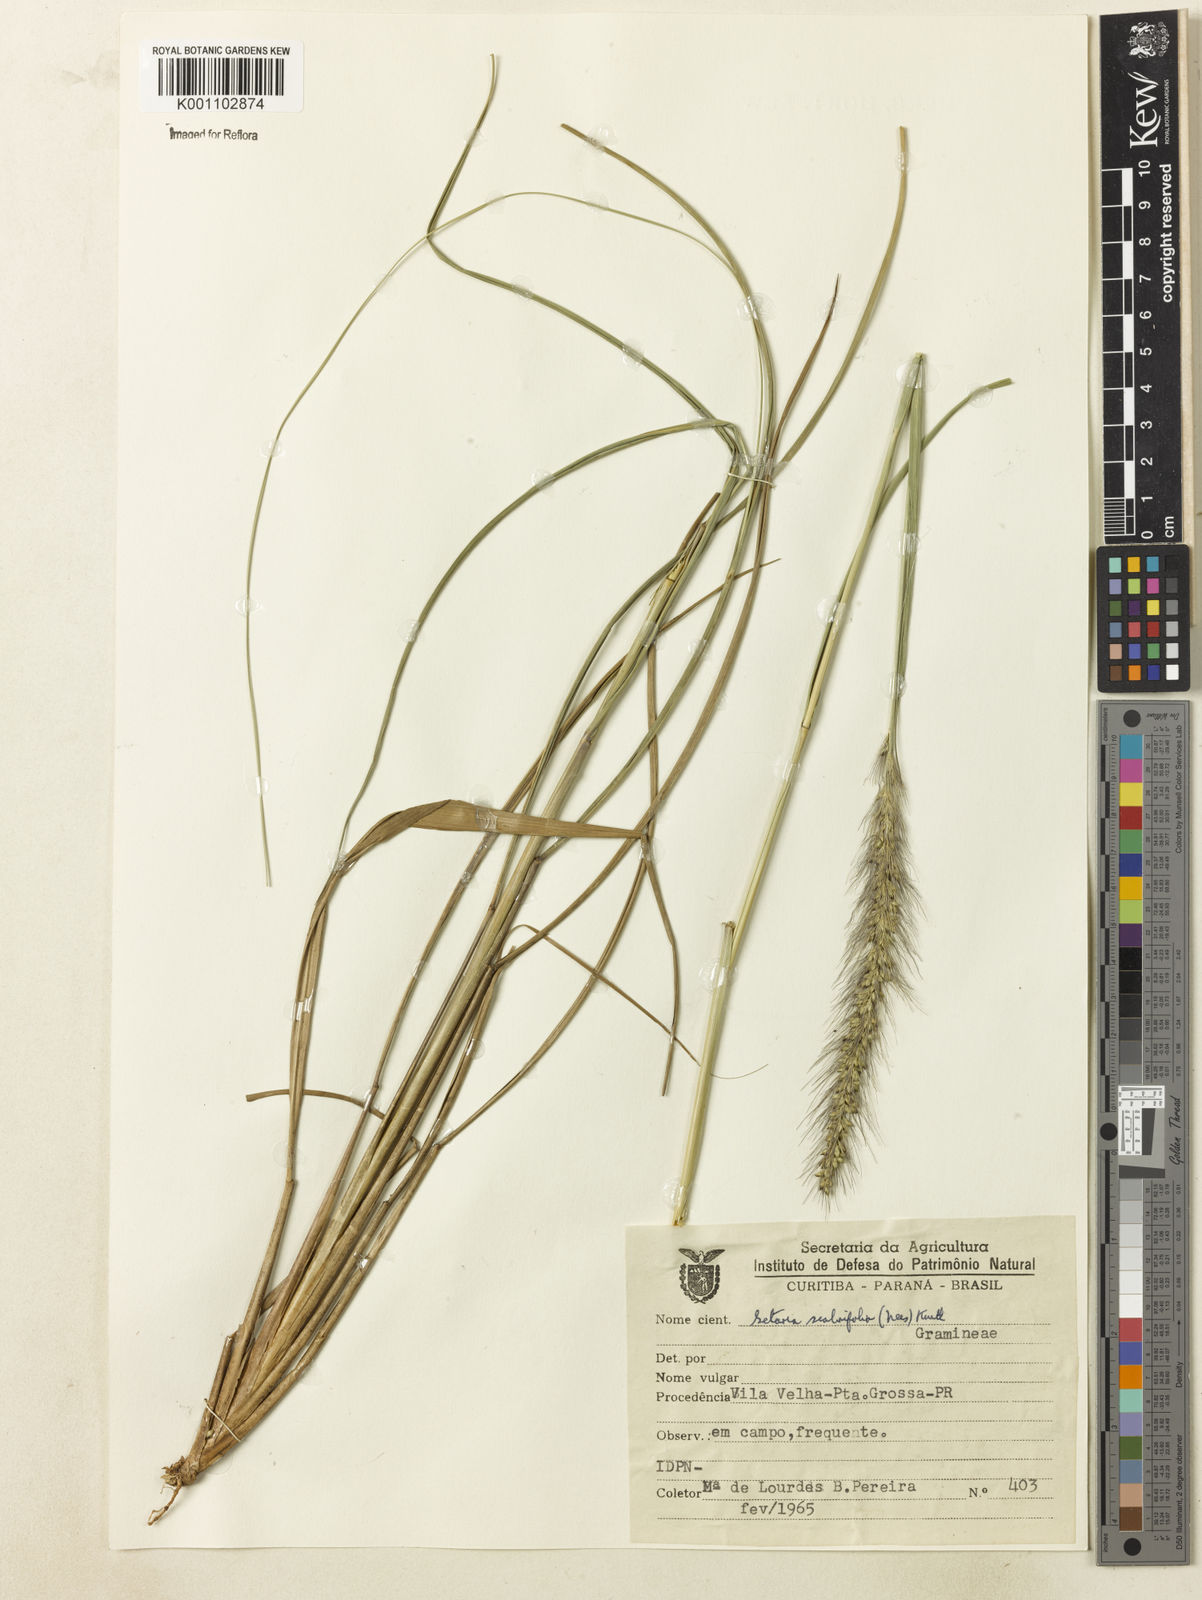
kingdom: Plantae
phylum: Tracheophyta
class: Liliopsida
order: Poales
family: Poaceae
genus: Setaria
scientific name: Setaria scabrifolia
